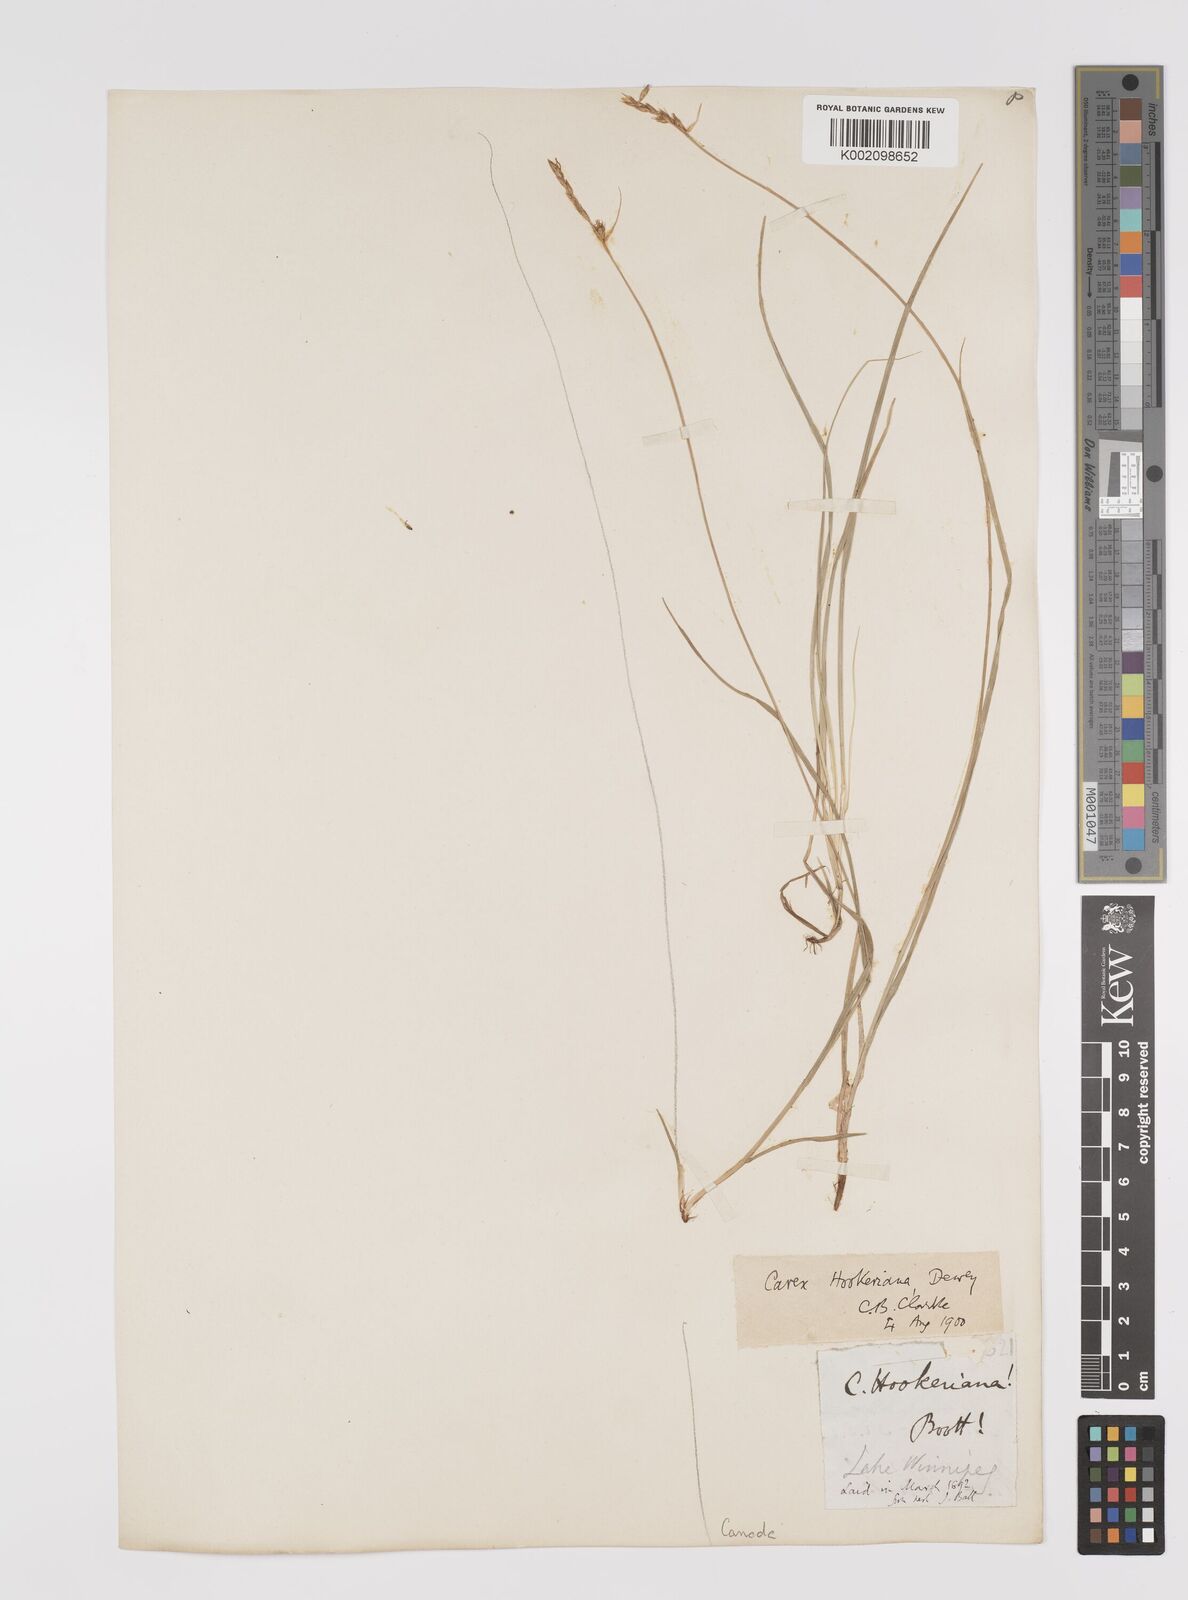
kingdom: Plantae
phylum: Tracheophyta
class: Liliopsida
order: Poales
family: Cyperaceae
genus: Carex
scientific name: Carex hookeriana
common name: Hooker's sedge
